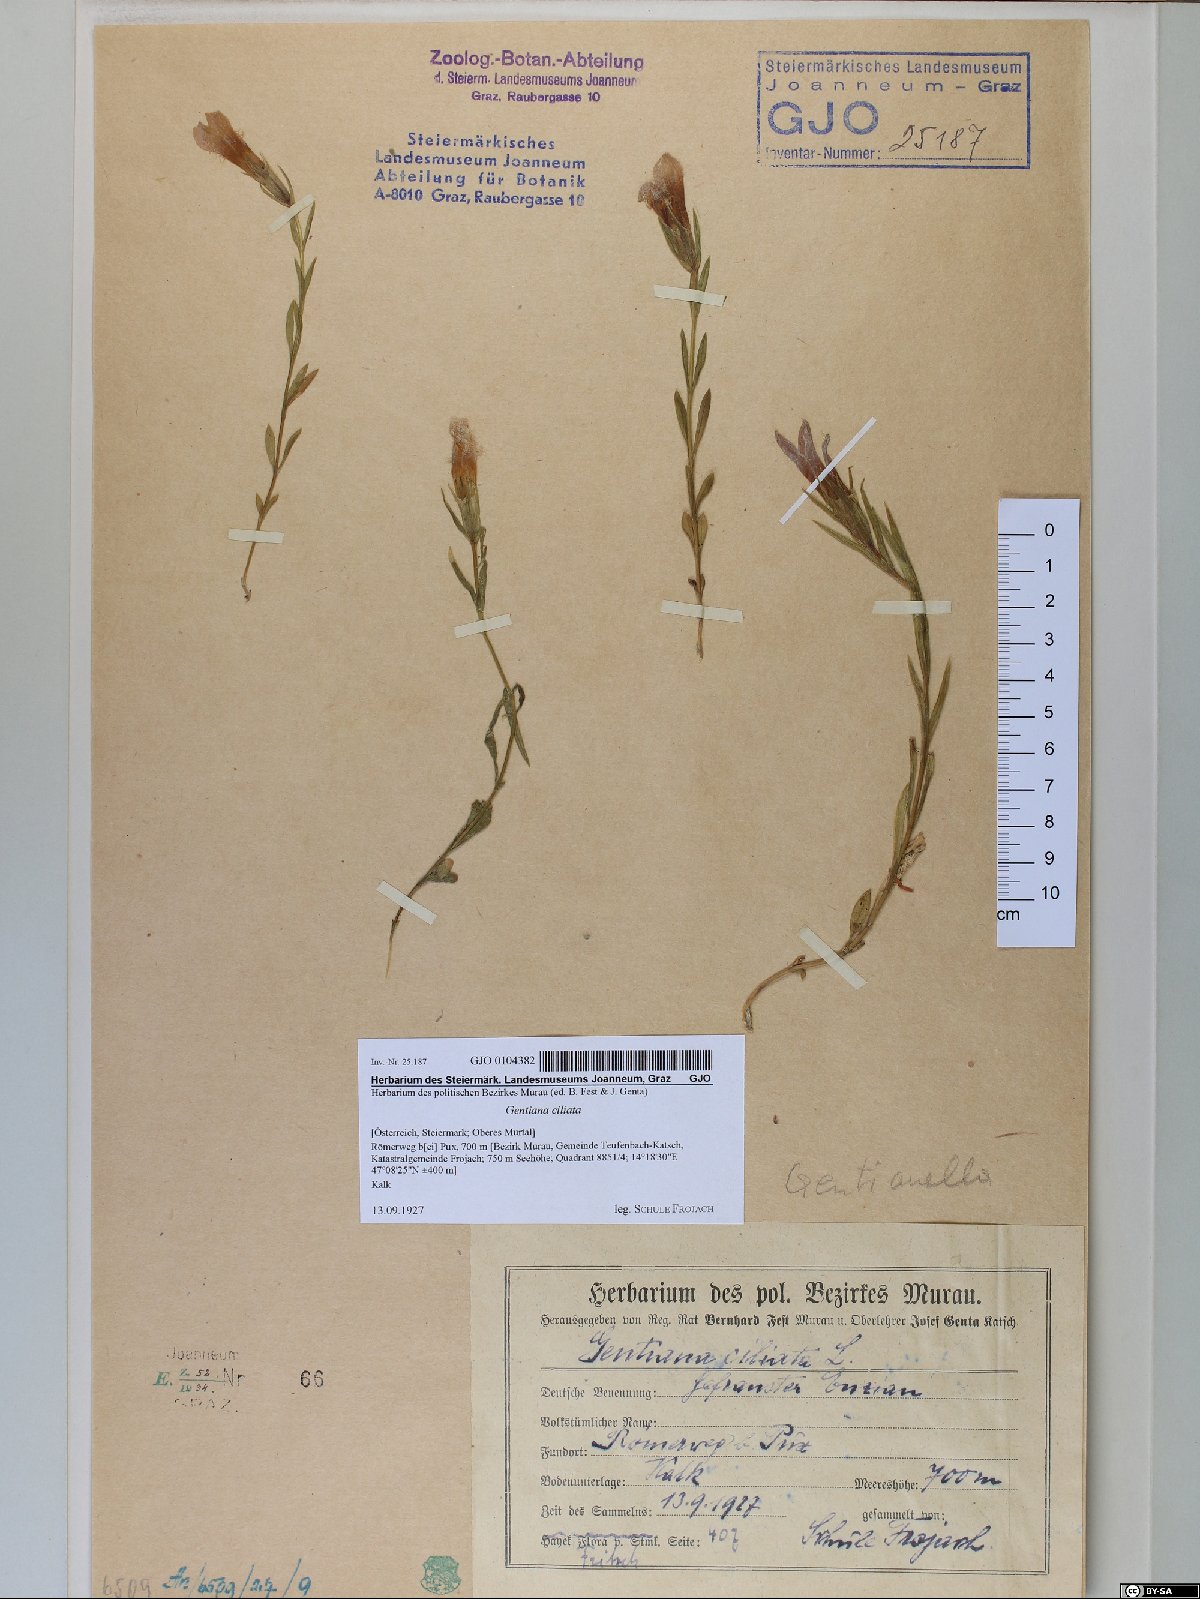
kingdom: Plantae
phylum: Tracheophyta
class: Magnoliopsida
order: Gentianales
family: Gentianaceae
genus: Gentianopsis
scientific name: Gentianopsis ciliata
